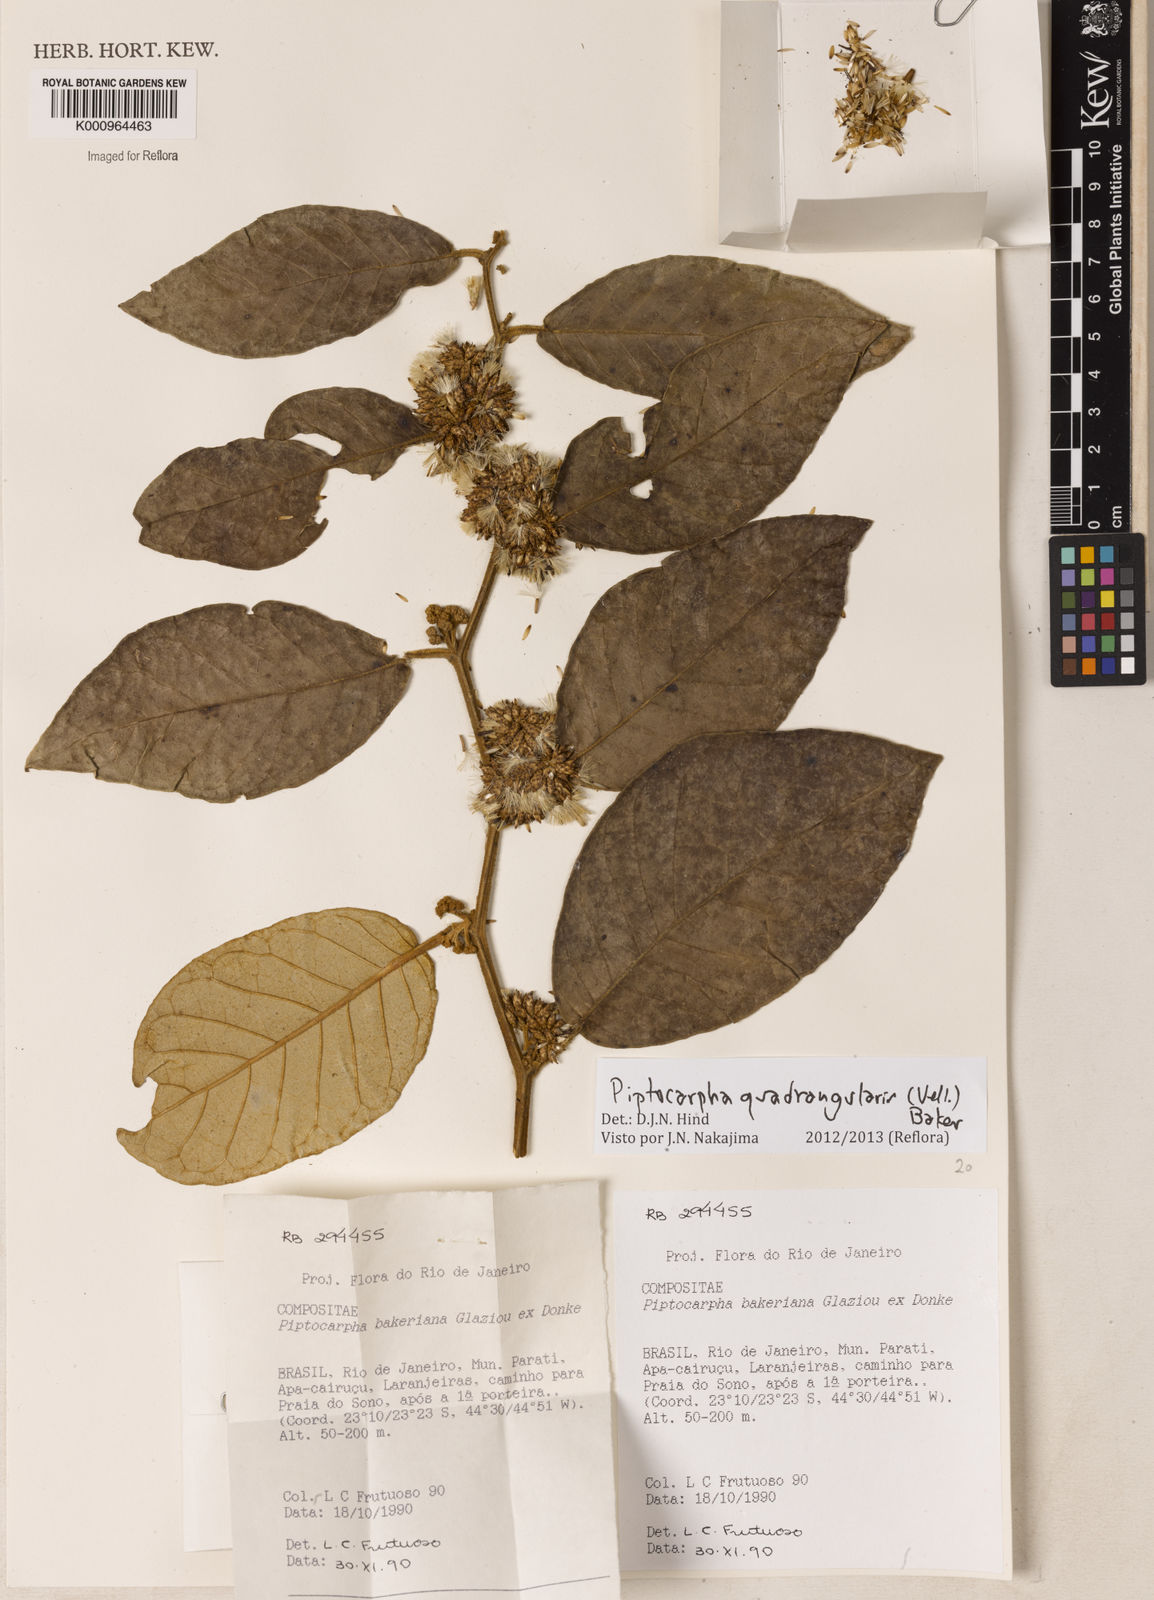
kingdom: Plantae
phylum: Tracheophyta
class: Magnoliopsida
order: Asterales
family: Asteraceae
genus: Piptocarpha
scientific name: Piptocarpha quadrangularis
